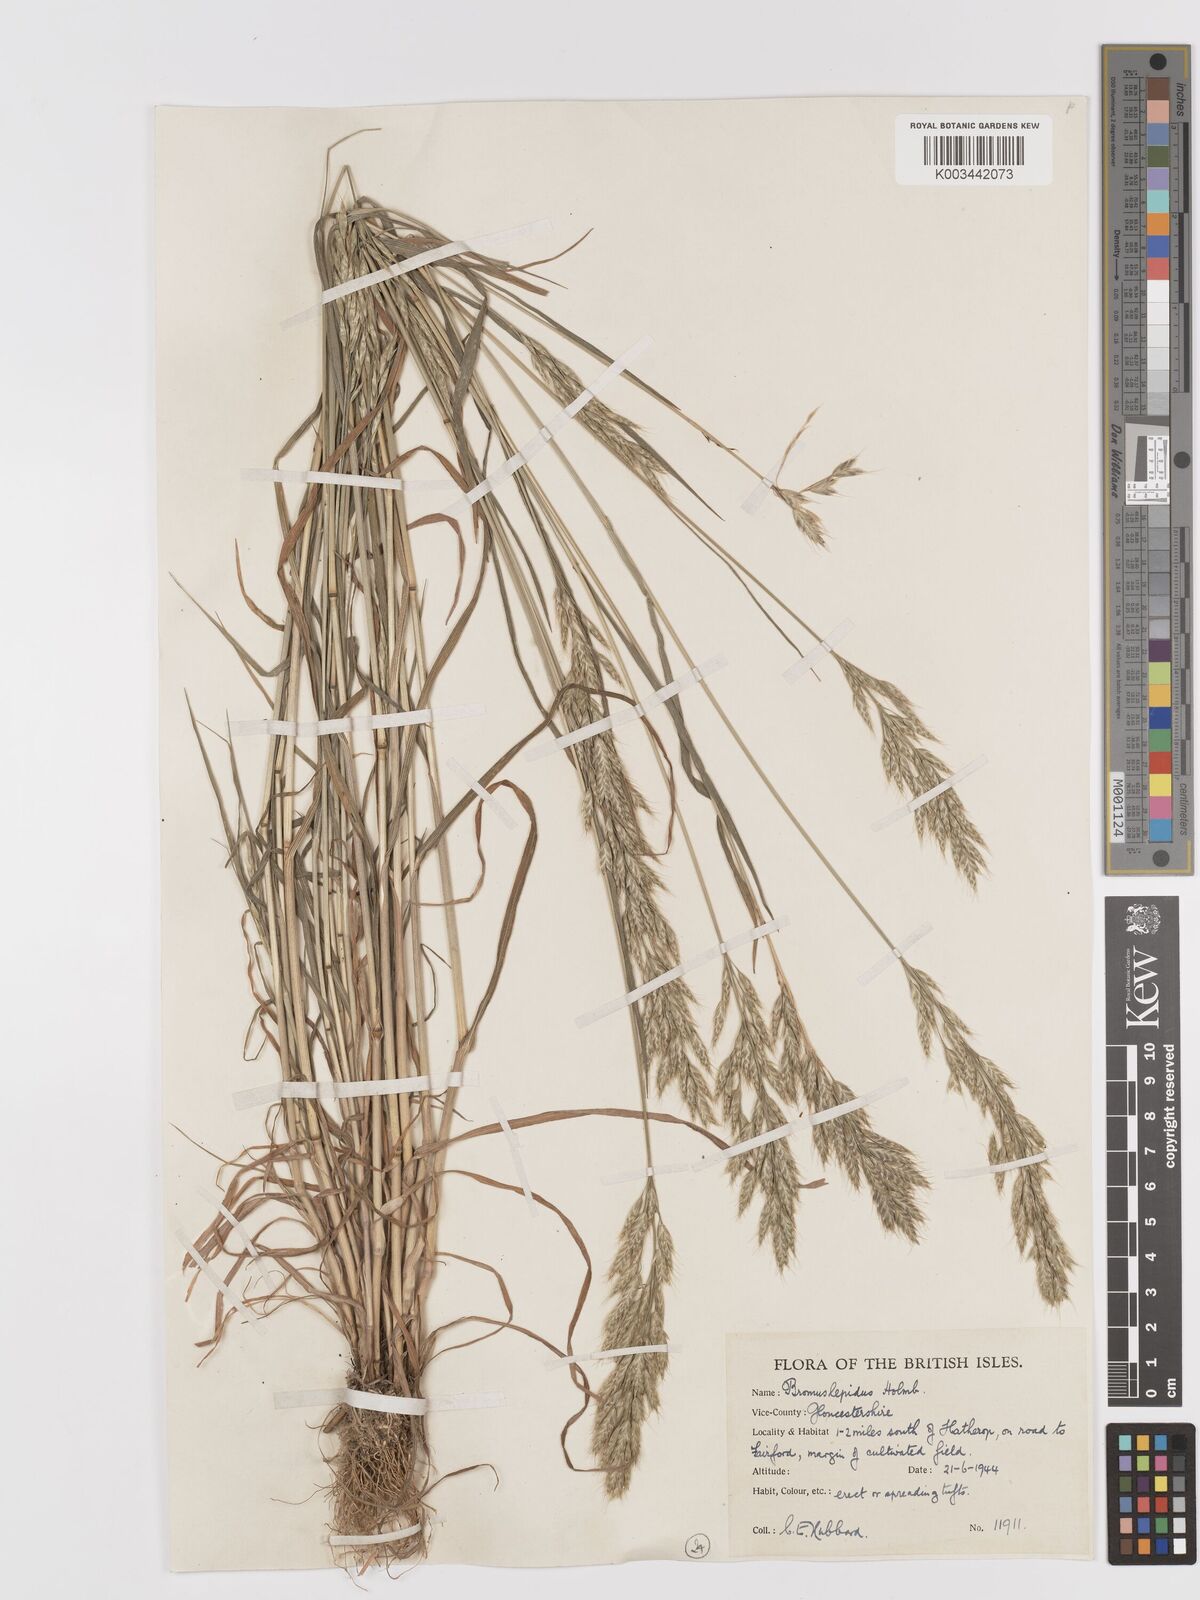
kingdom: Plantae
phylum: Tracheophyta
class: Liliopsida
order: Poales
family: Poaceae
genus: Bromus
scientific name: Bromus lepidus
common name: Slender soft-brome
